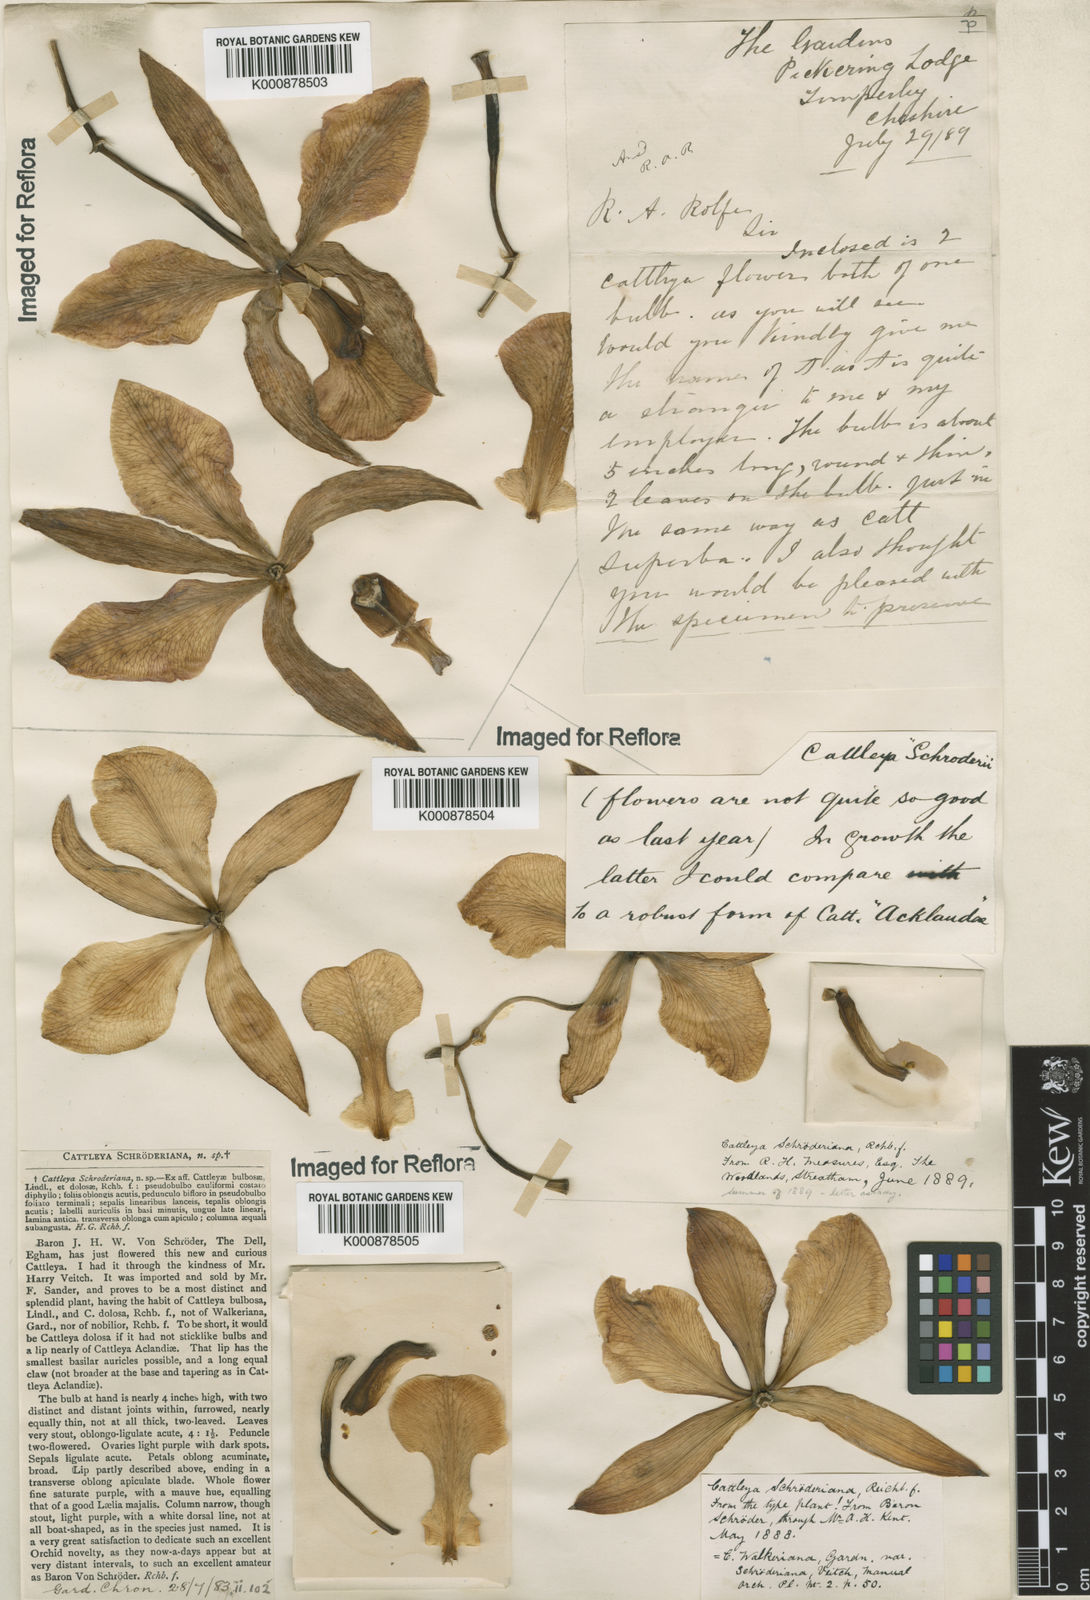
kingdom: Plantae
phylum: Tracheophyta
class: Liliopsida
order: Asparagales
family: Orchidaceae
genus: Cattleya
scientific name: Cattleya schroederiana
